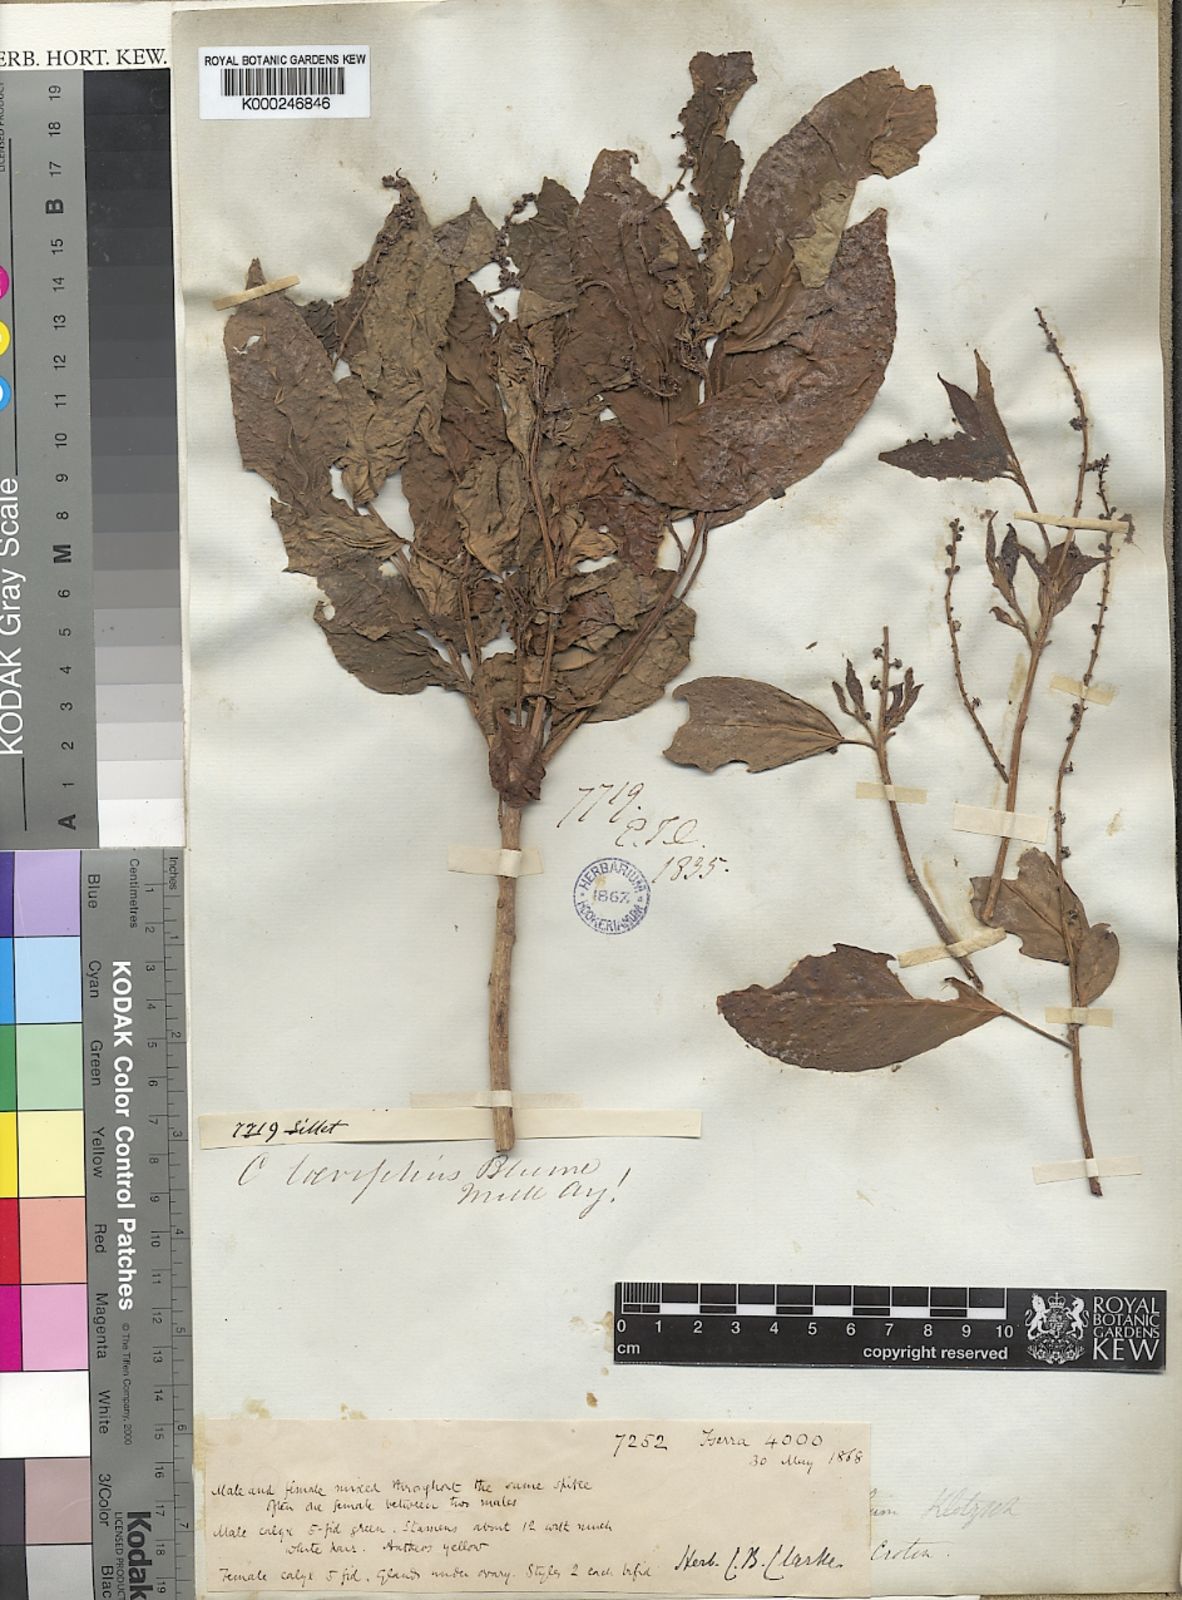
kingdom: Plantae
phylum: Tracheophyta
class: Magnoliopsida
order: Malpighiales
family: Euphorbiaceae
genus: Croton
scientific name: Croton lissophyllus
